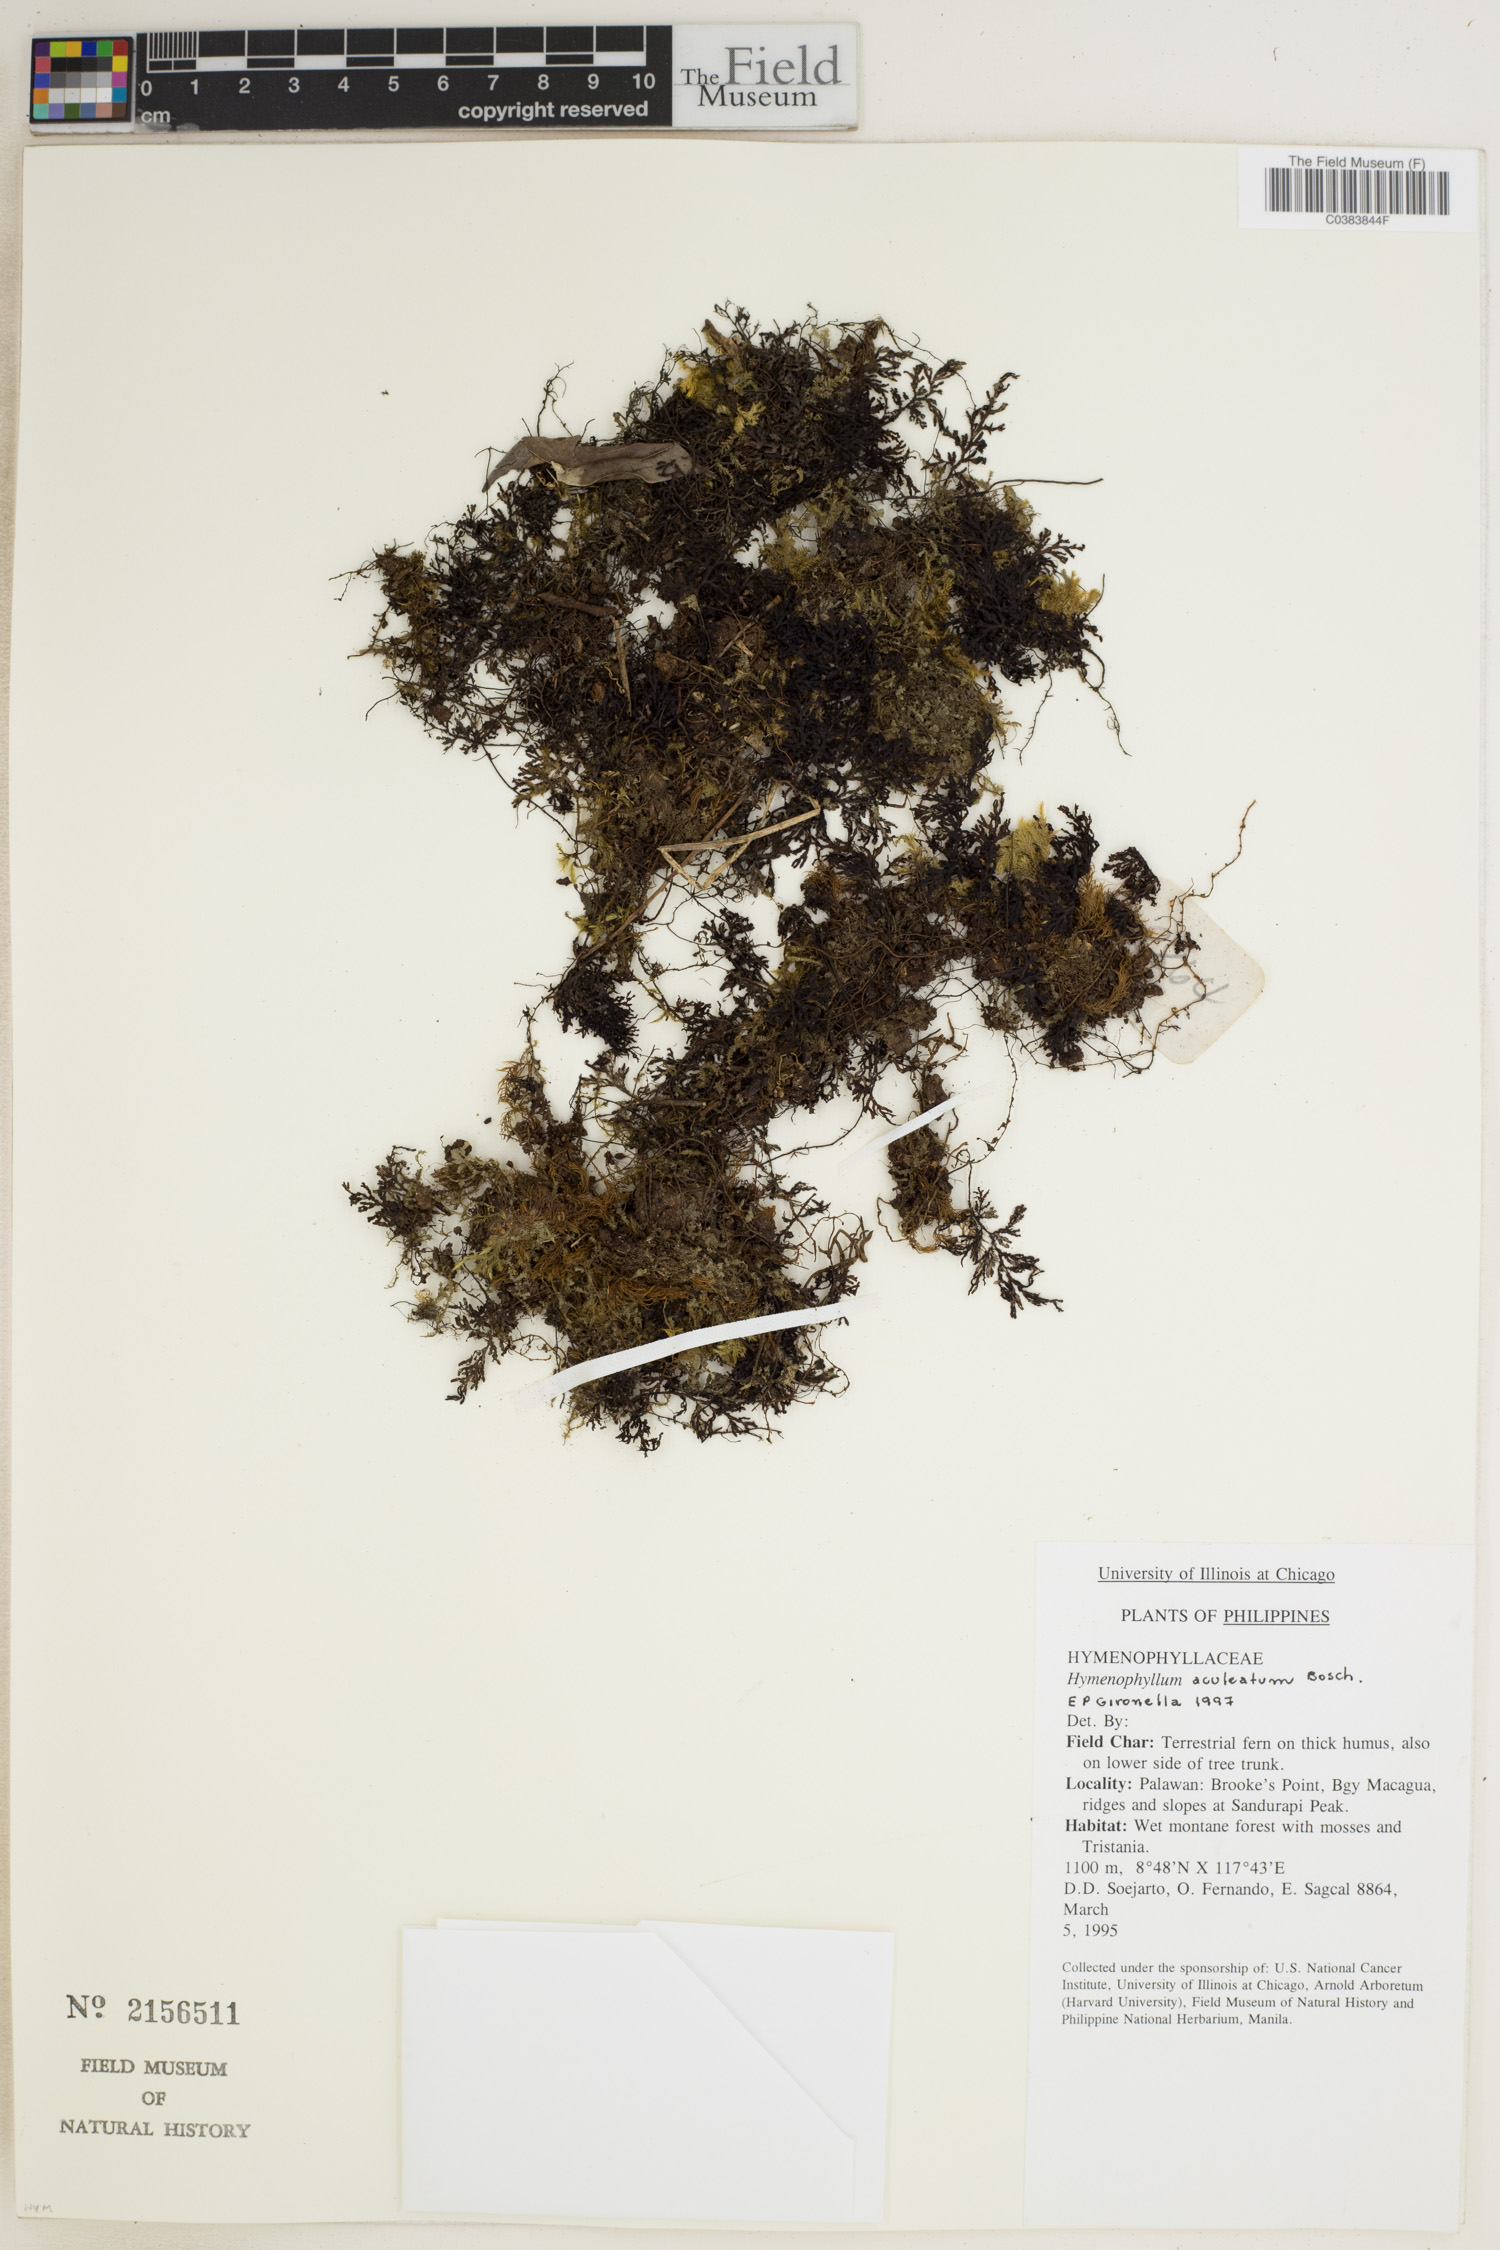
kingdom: Plantae
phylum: Tracheophyta
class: Polypodiopsida
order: Hymenophyllales
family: Hymenophyllaceae
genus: Hymenophyllum
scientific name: Hymenophyllum denticulatum
